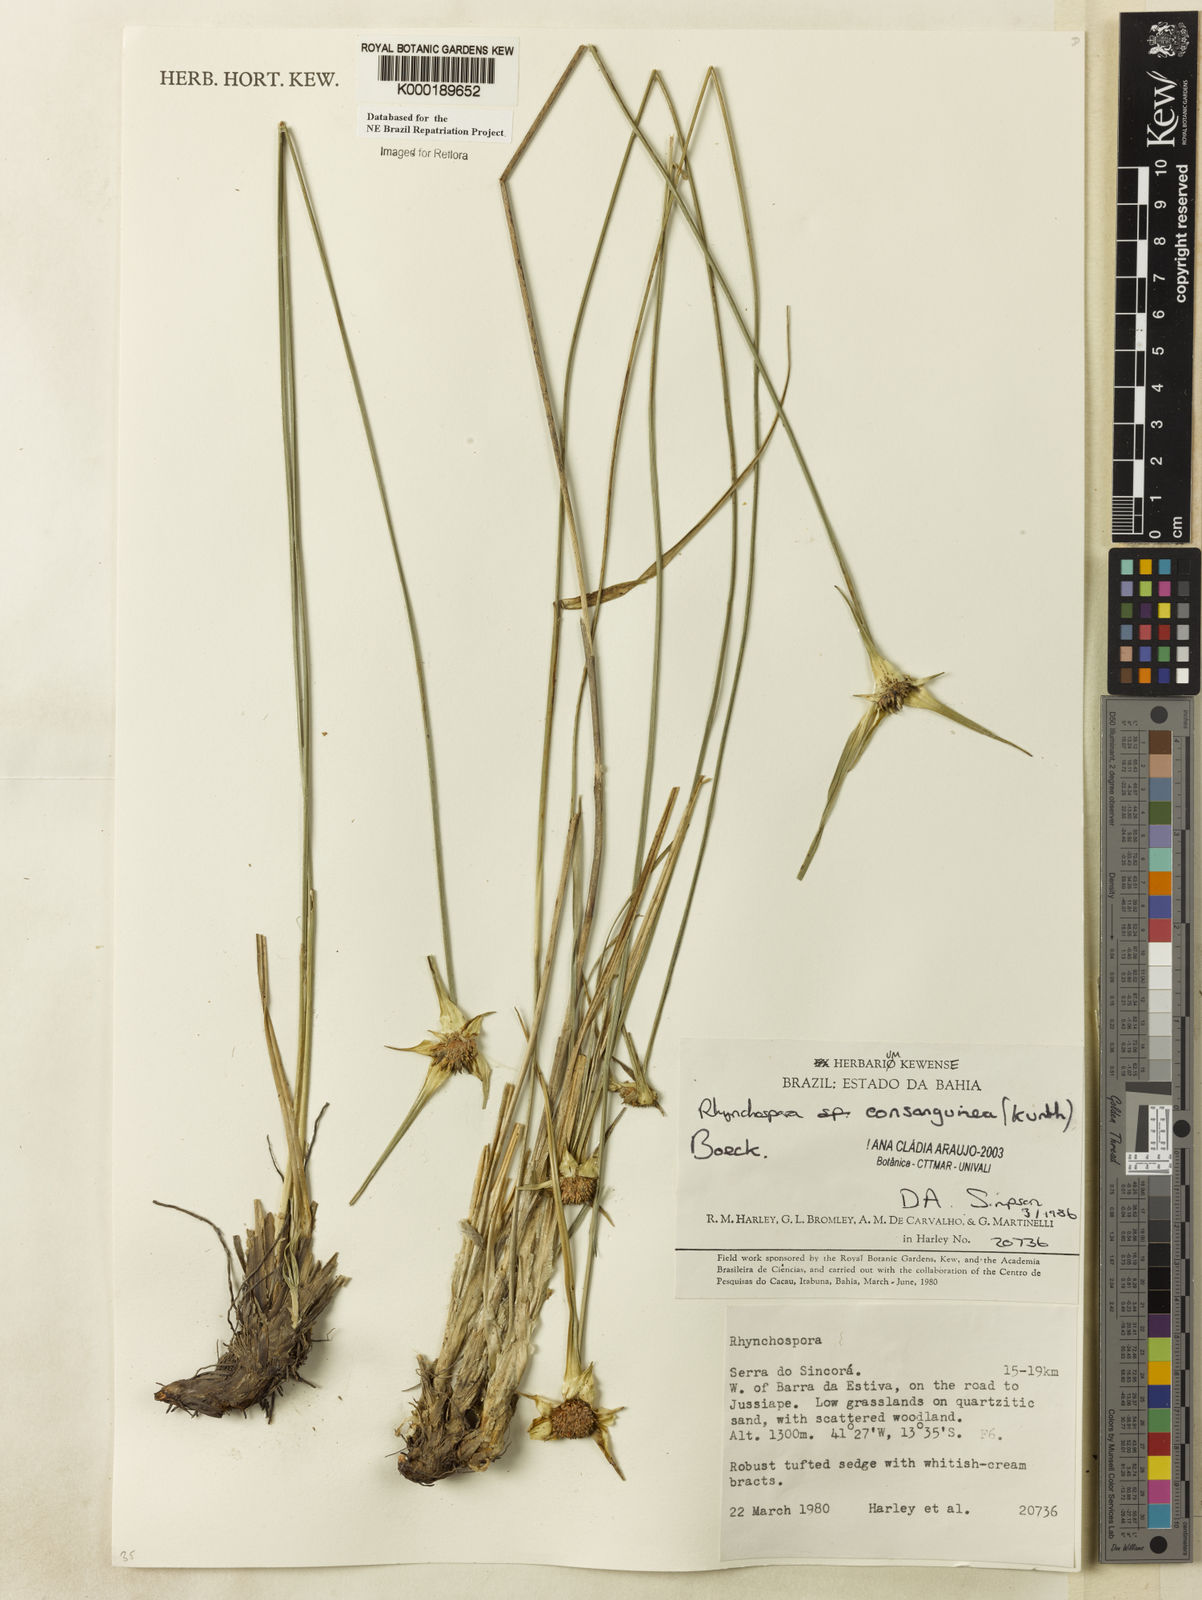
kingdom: Plantae
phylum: Tracheophyta
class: Liliopsida
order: Poales
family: Cyperaceae
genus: Rhynchospora
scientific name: Rhynchospora consanguinea
